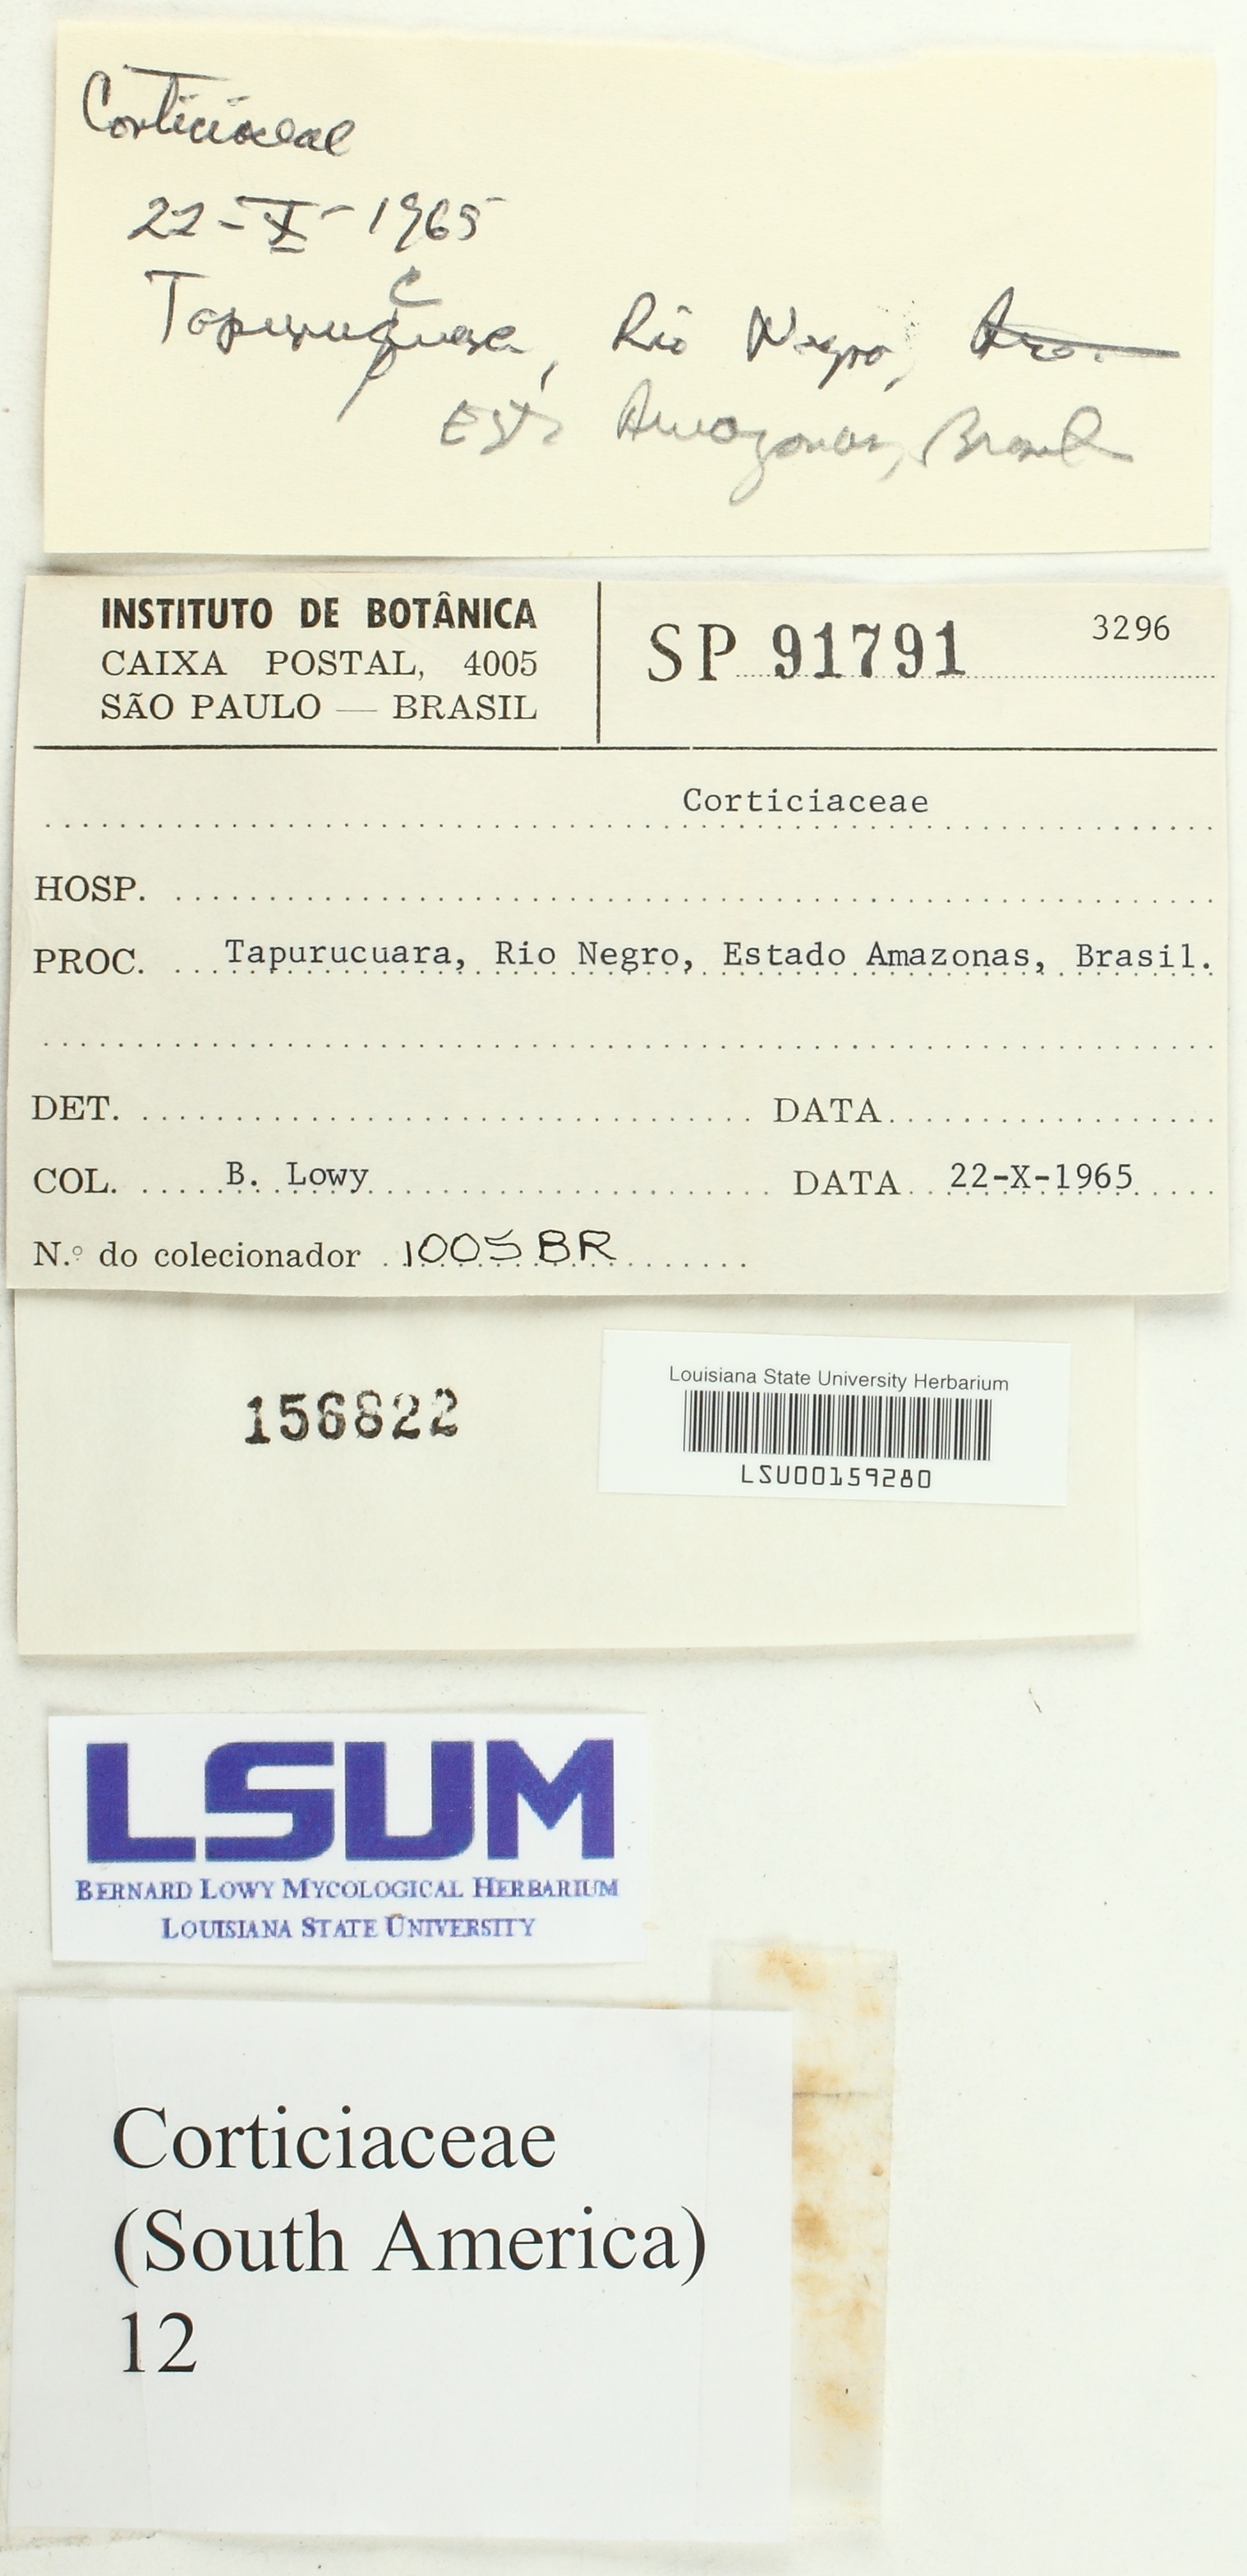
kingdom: Fungi
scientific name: Fungi
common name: Fungi
